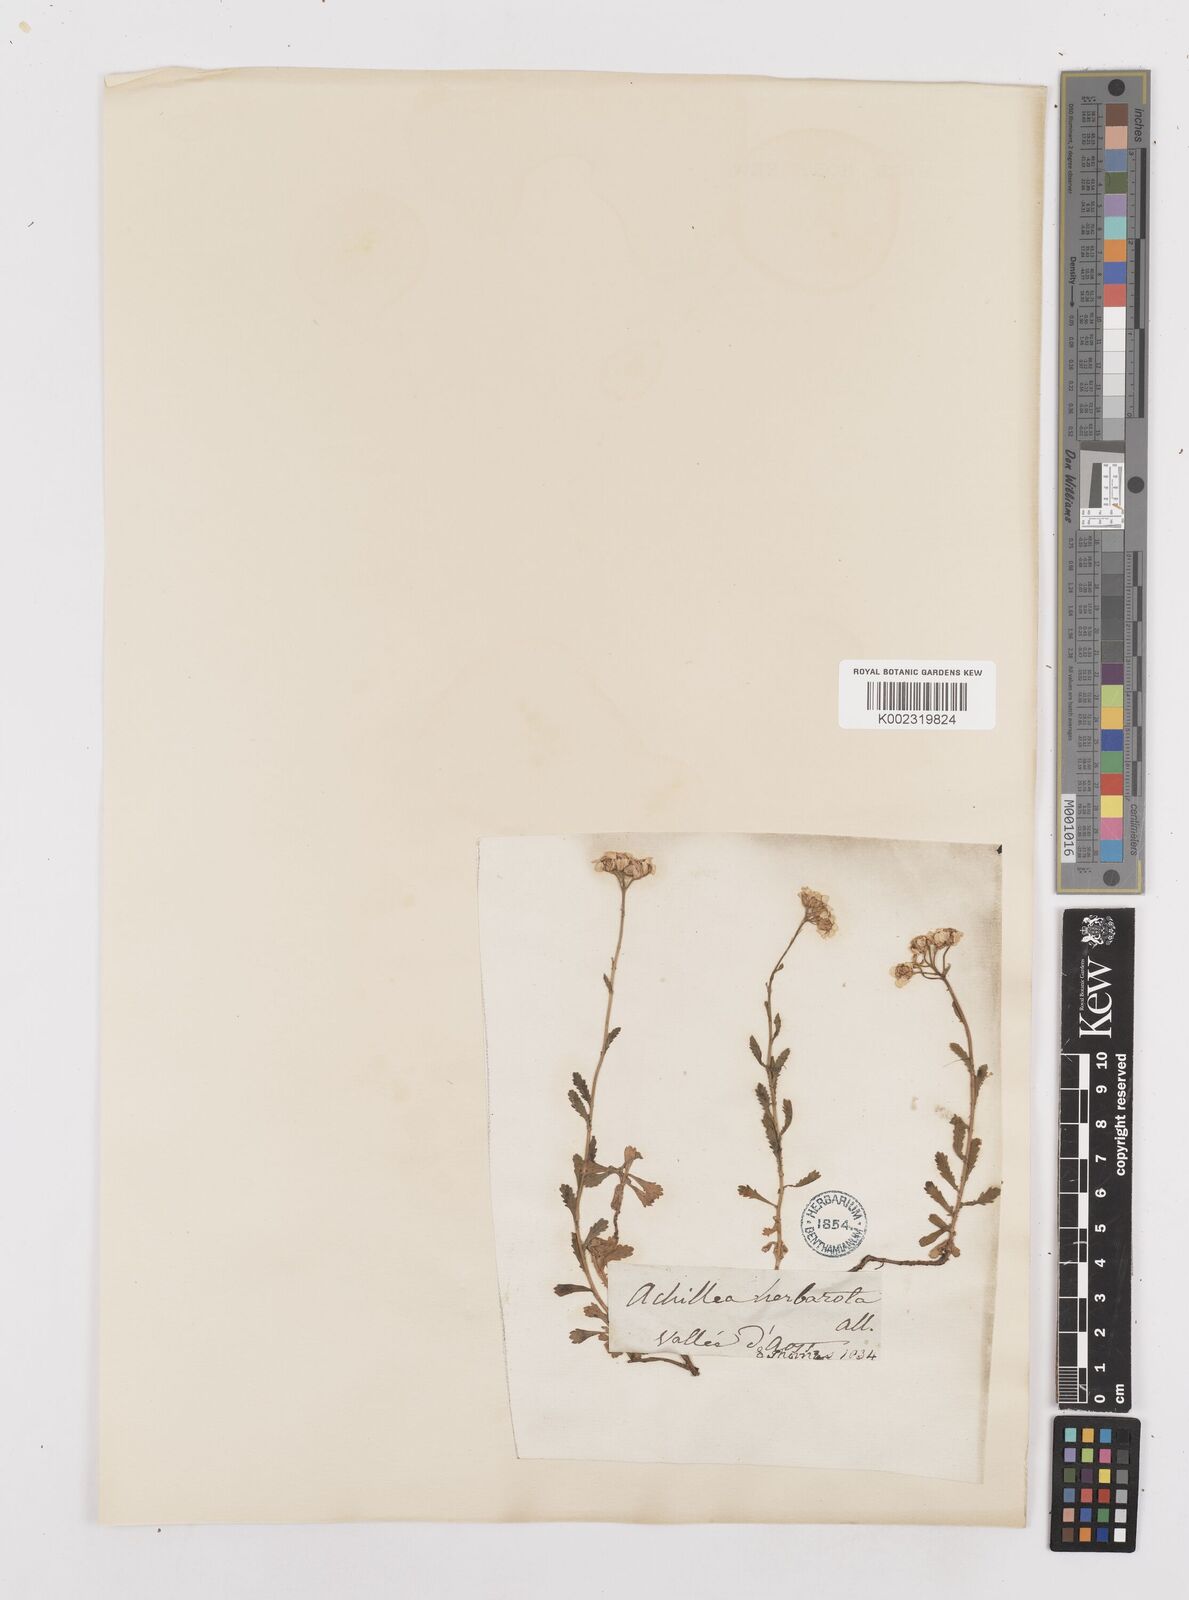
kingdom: Plantae
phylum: Tracheophyta
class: Magnoliopsida
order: Asterales
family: Asteraceae
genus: Achillea
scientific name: Achillea erba-rotta
